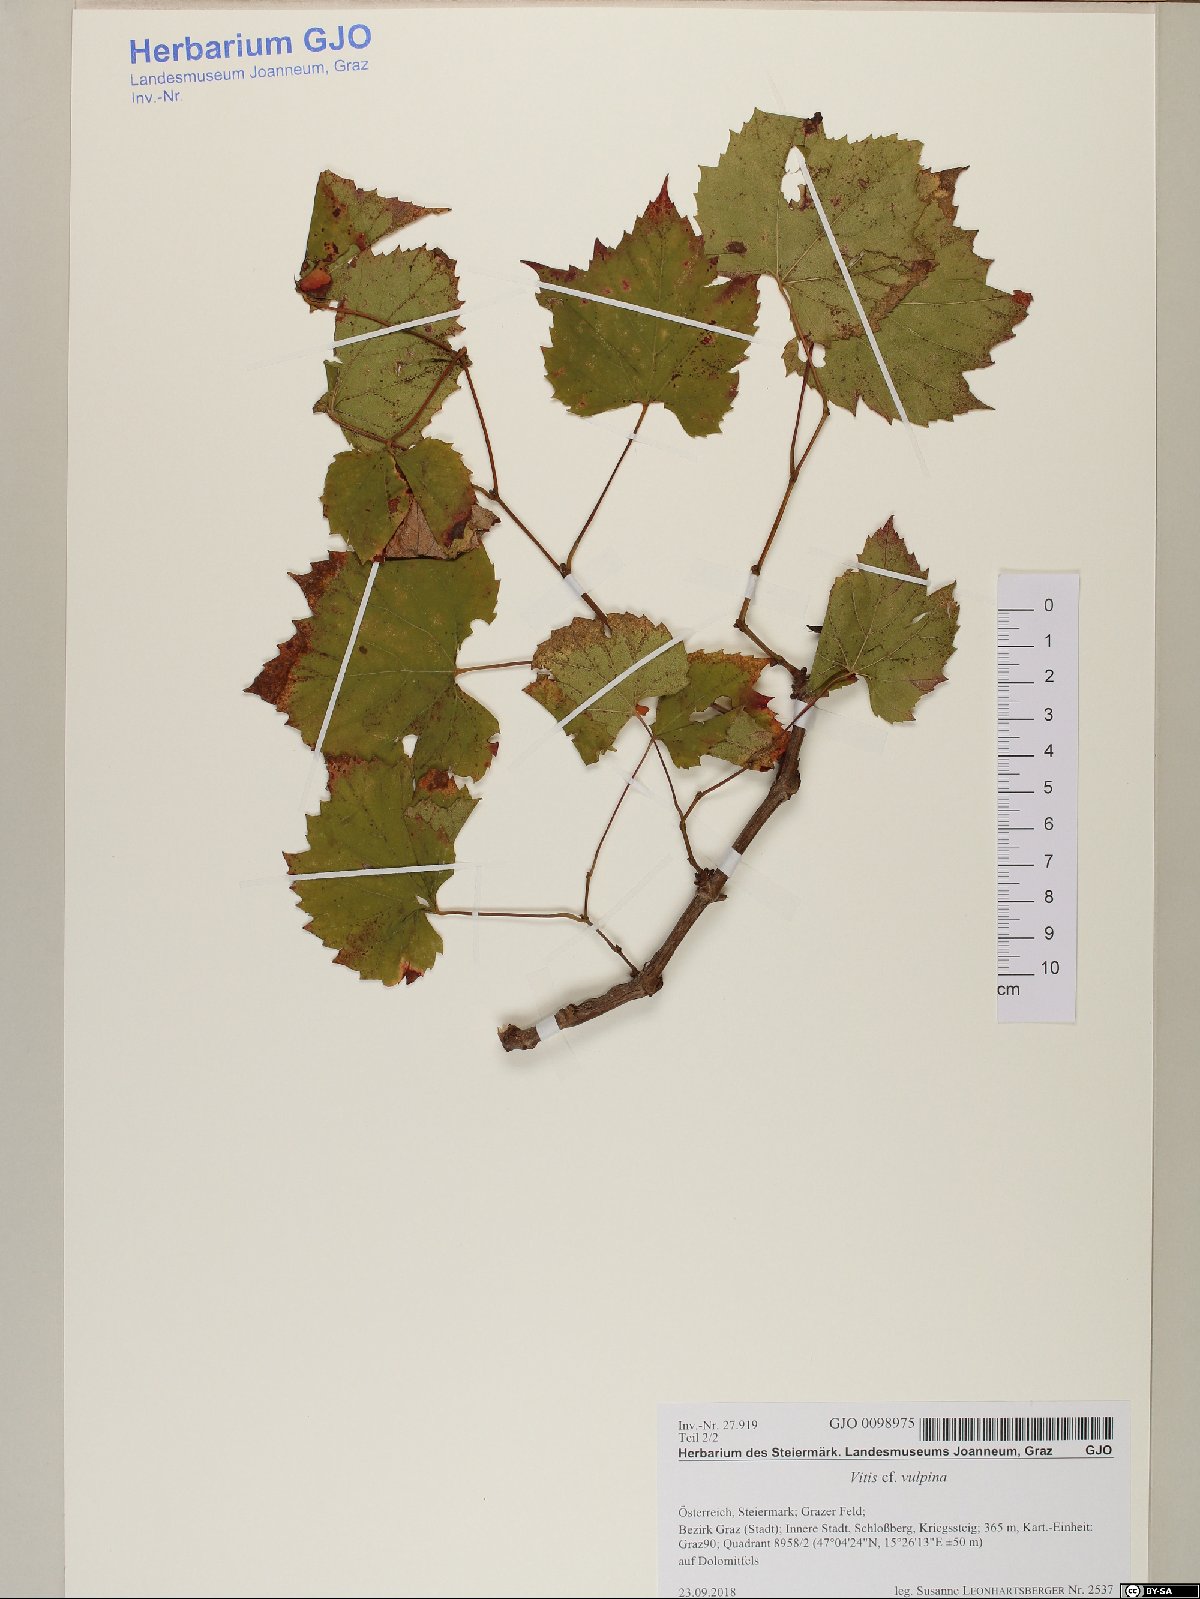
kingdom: Plantae
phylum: Tracheophyta
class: Magnoliopsida
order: Vitales
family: Vitaceae
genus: Vitis
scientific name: Vitis vulpina
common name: Frost grape
